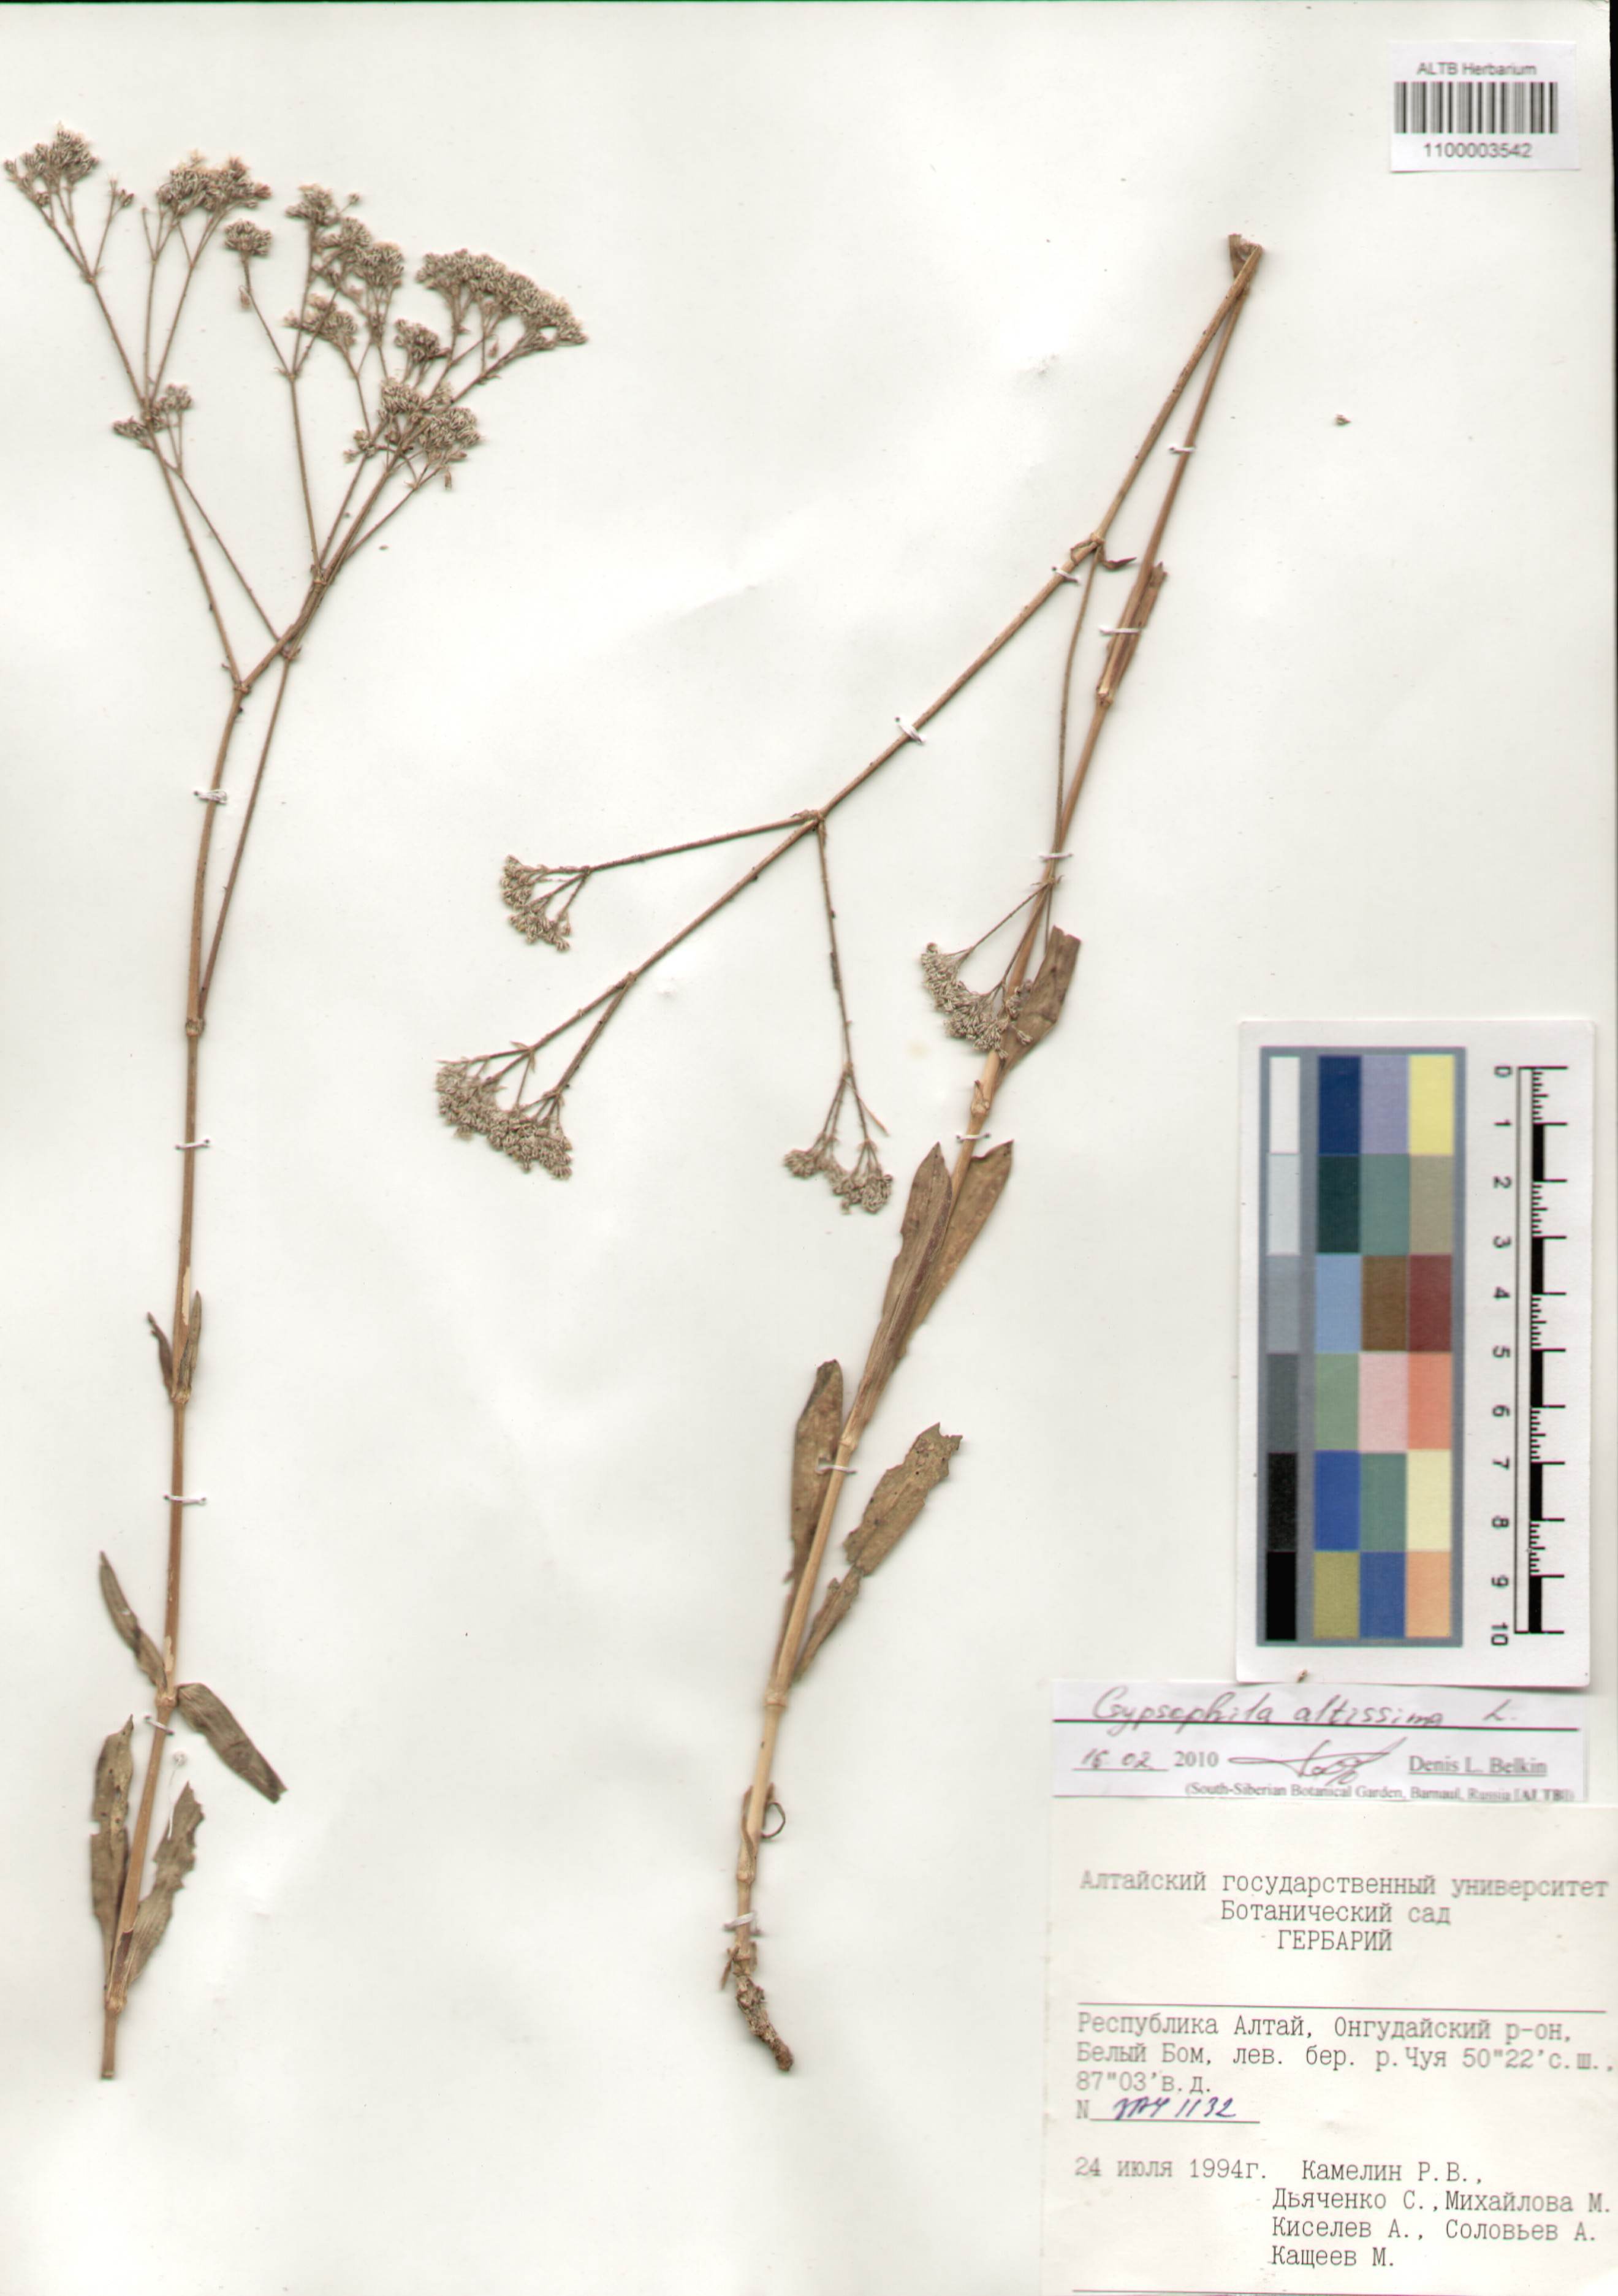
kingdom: Plantae
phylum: Tracheophyta
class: Magnoliopsida
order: Caryophyllales
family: Caryophyllaceae
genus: Gypsophila
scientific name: Gypsophila altissima
